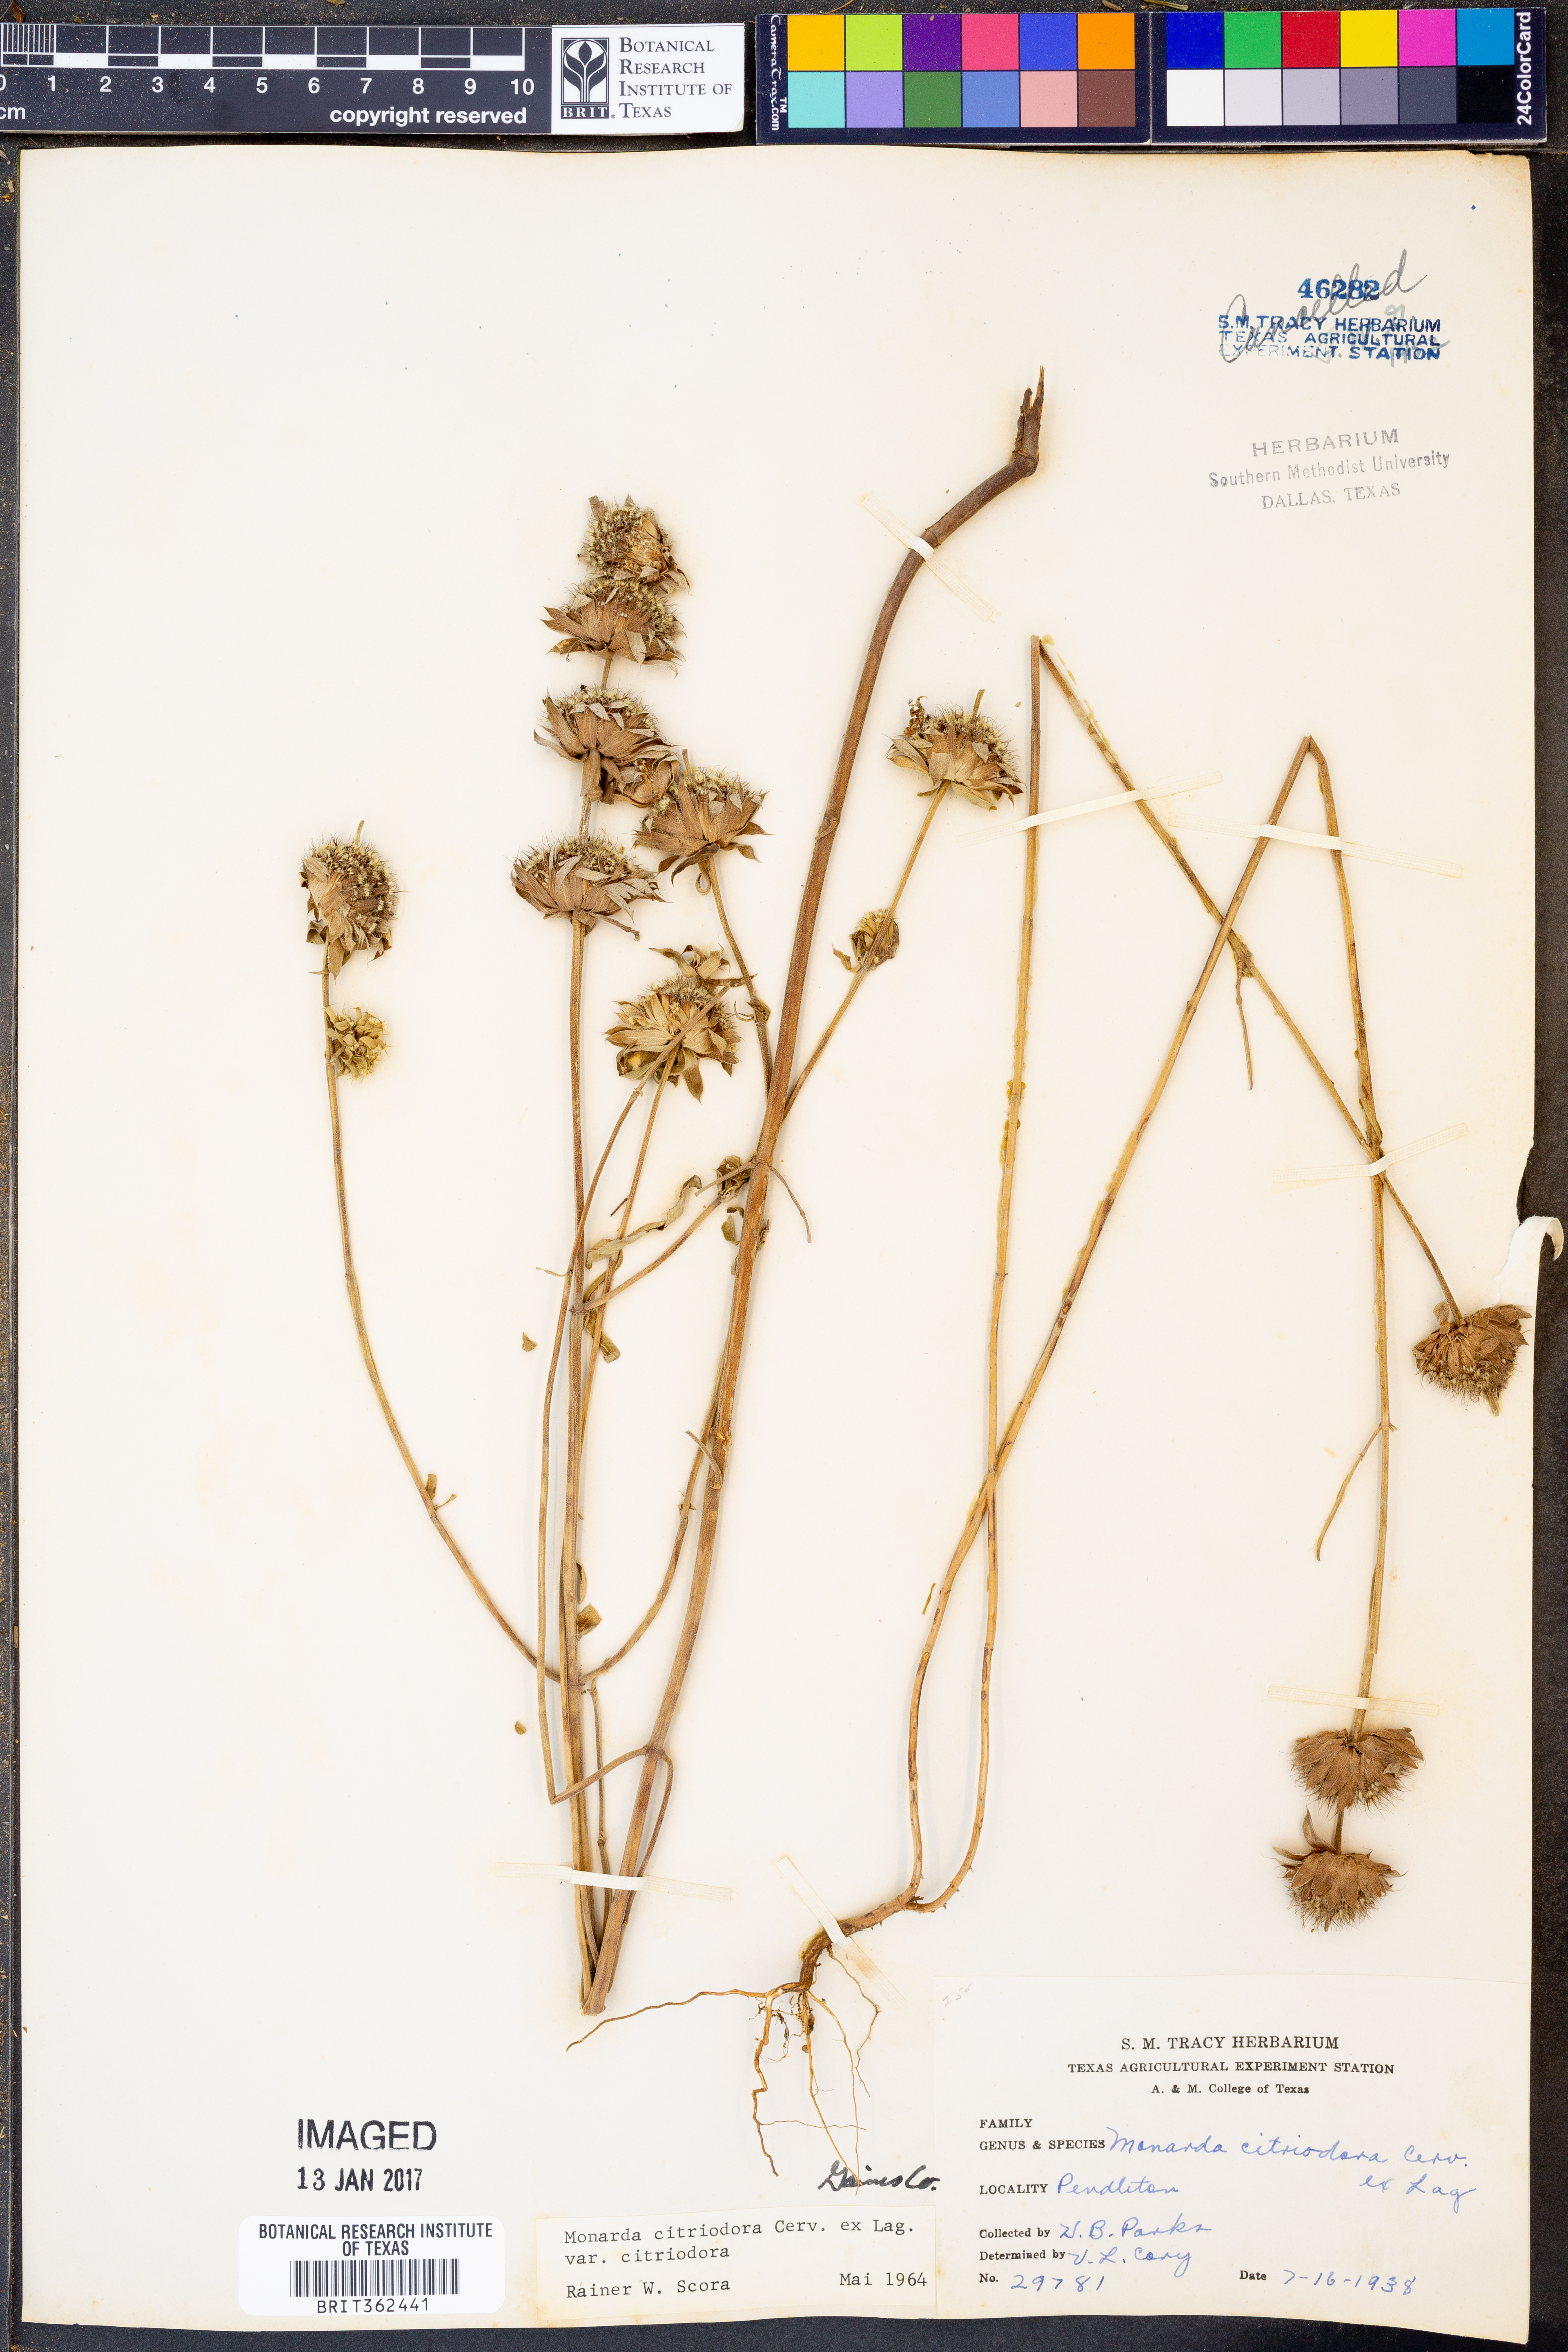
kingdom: Plantae
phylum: Tracheophyta
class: Magnoliopsida
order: Lamiales
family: Lamiaceae
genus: Monarda
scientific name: Monarda citriodora
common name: Lemon beebalm
